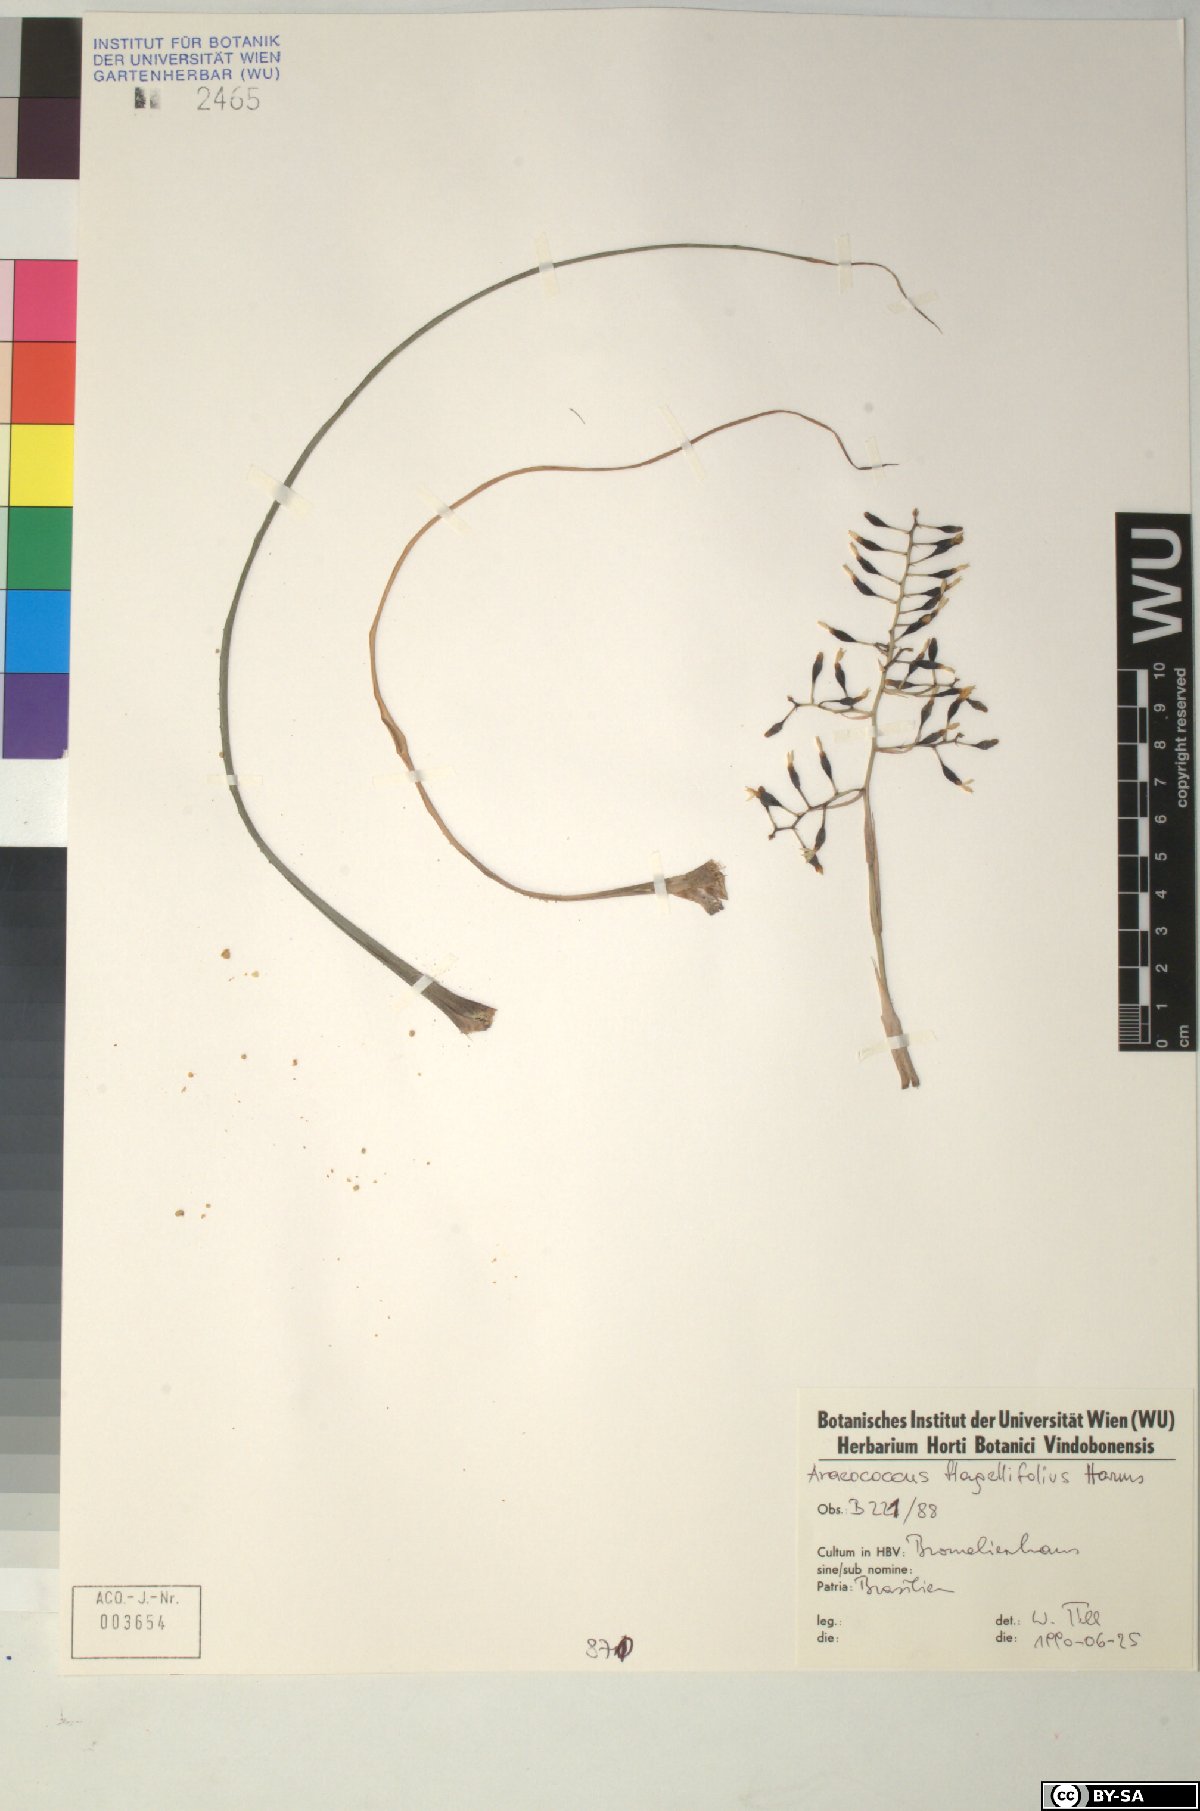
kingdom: Plantae
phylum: Tracheophyta
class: Liliopsida
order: Poales
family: Bromeliaceae
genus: Araeococcus
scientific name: Araeococcus flagellifolius
